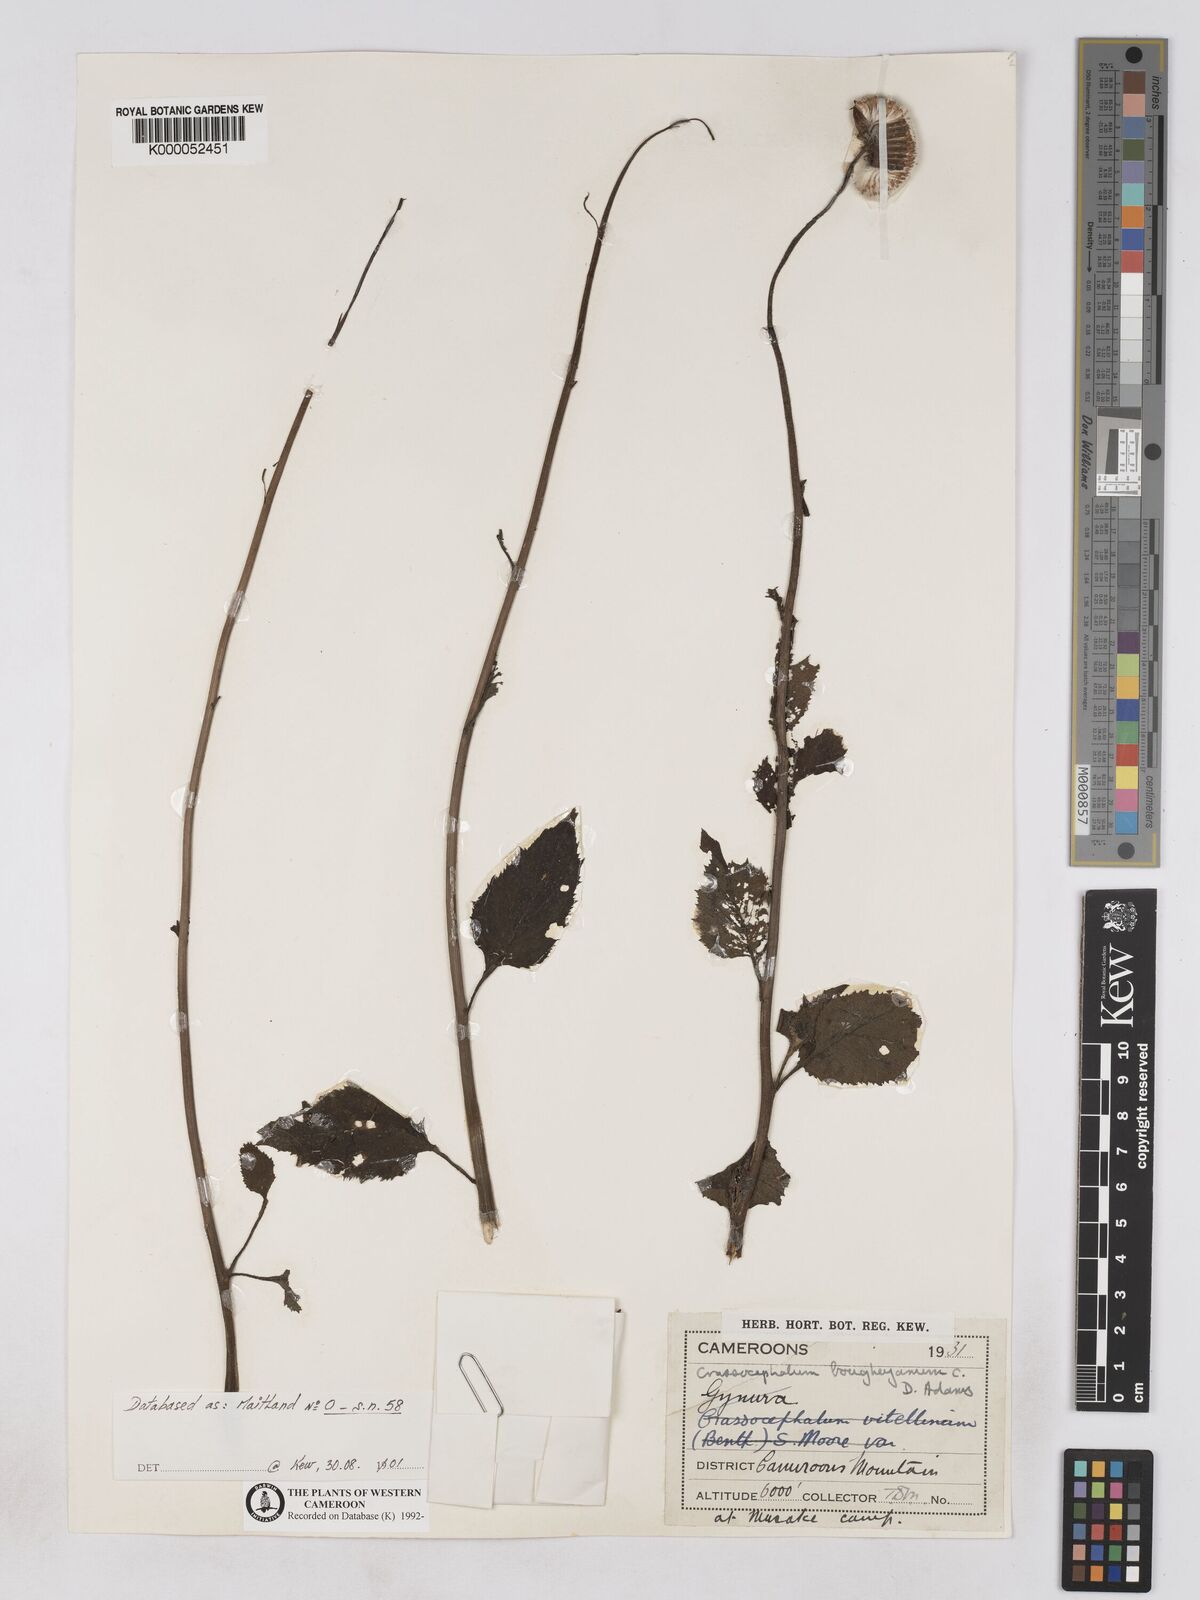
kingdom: Plantae
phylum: Tracheophyta
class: Magnoliopsida
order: Asterales
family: Asteraceae
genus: Crassocephalum
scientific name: Crassocephalum bougheyanum
